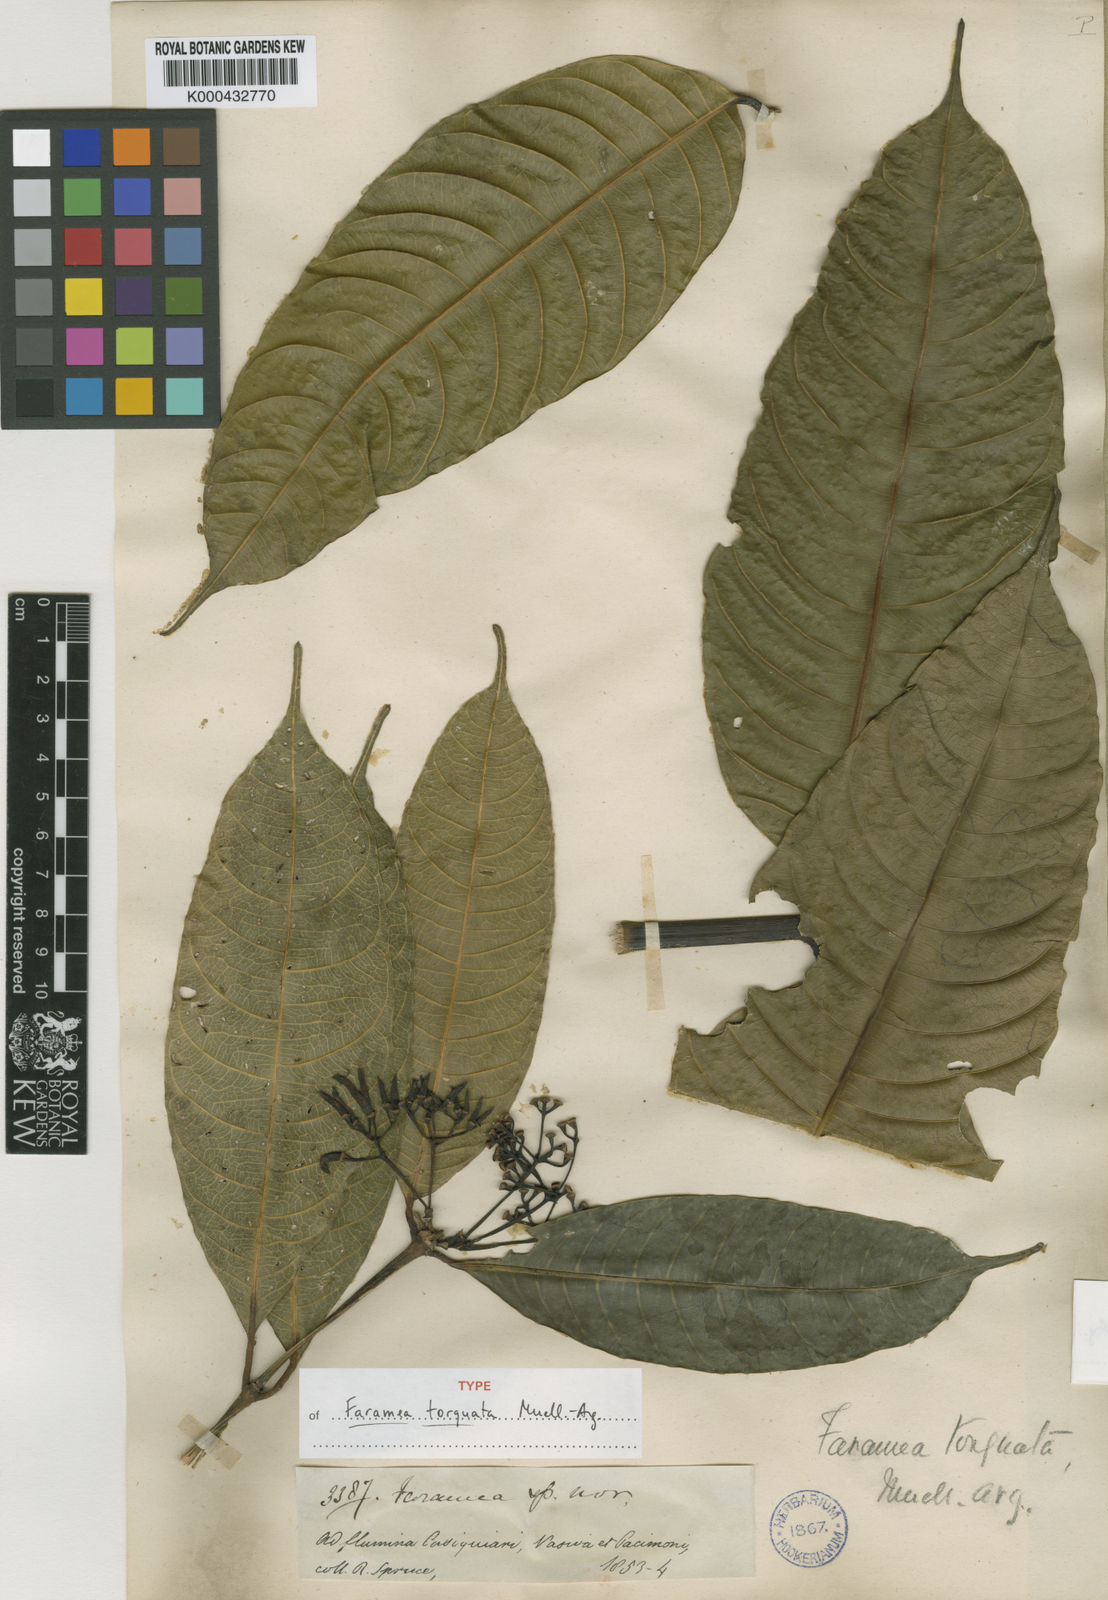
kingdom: Plantae
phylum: Tracheophyta
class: Magnoliopsida
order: Gentianales
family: Rubiaceae
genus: Faramea
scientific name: Faramea
